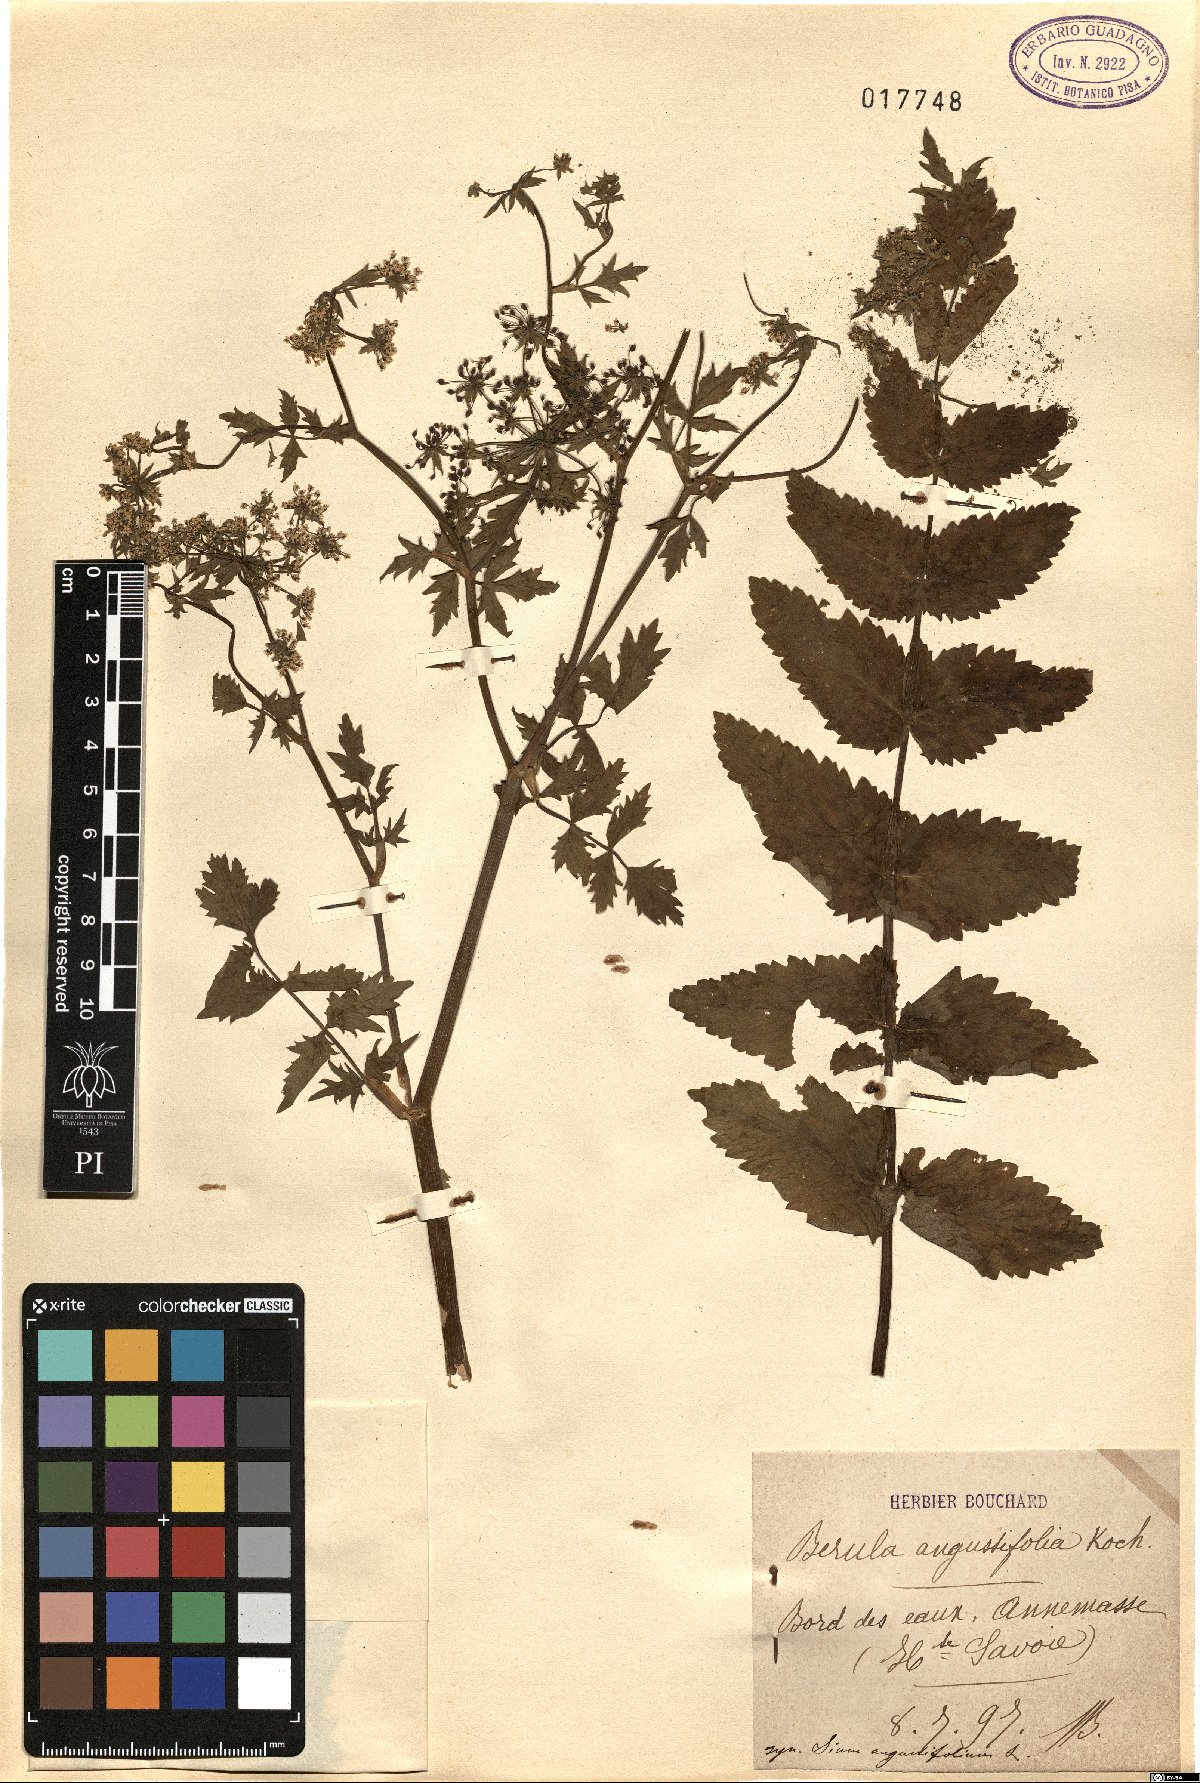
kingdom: Plantae
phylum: Tracheophyta
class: Magnoliopsida
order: Apiales
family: Apiaceae
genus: Berula
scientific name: Berula erecta
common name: Lesser water-parsnip
